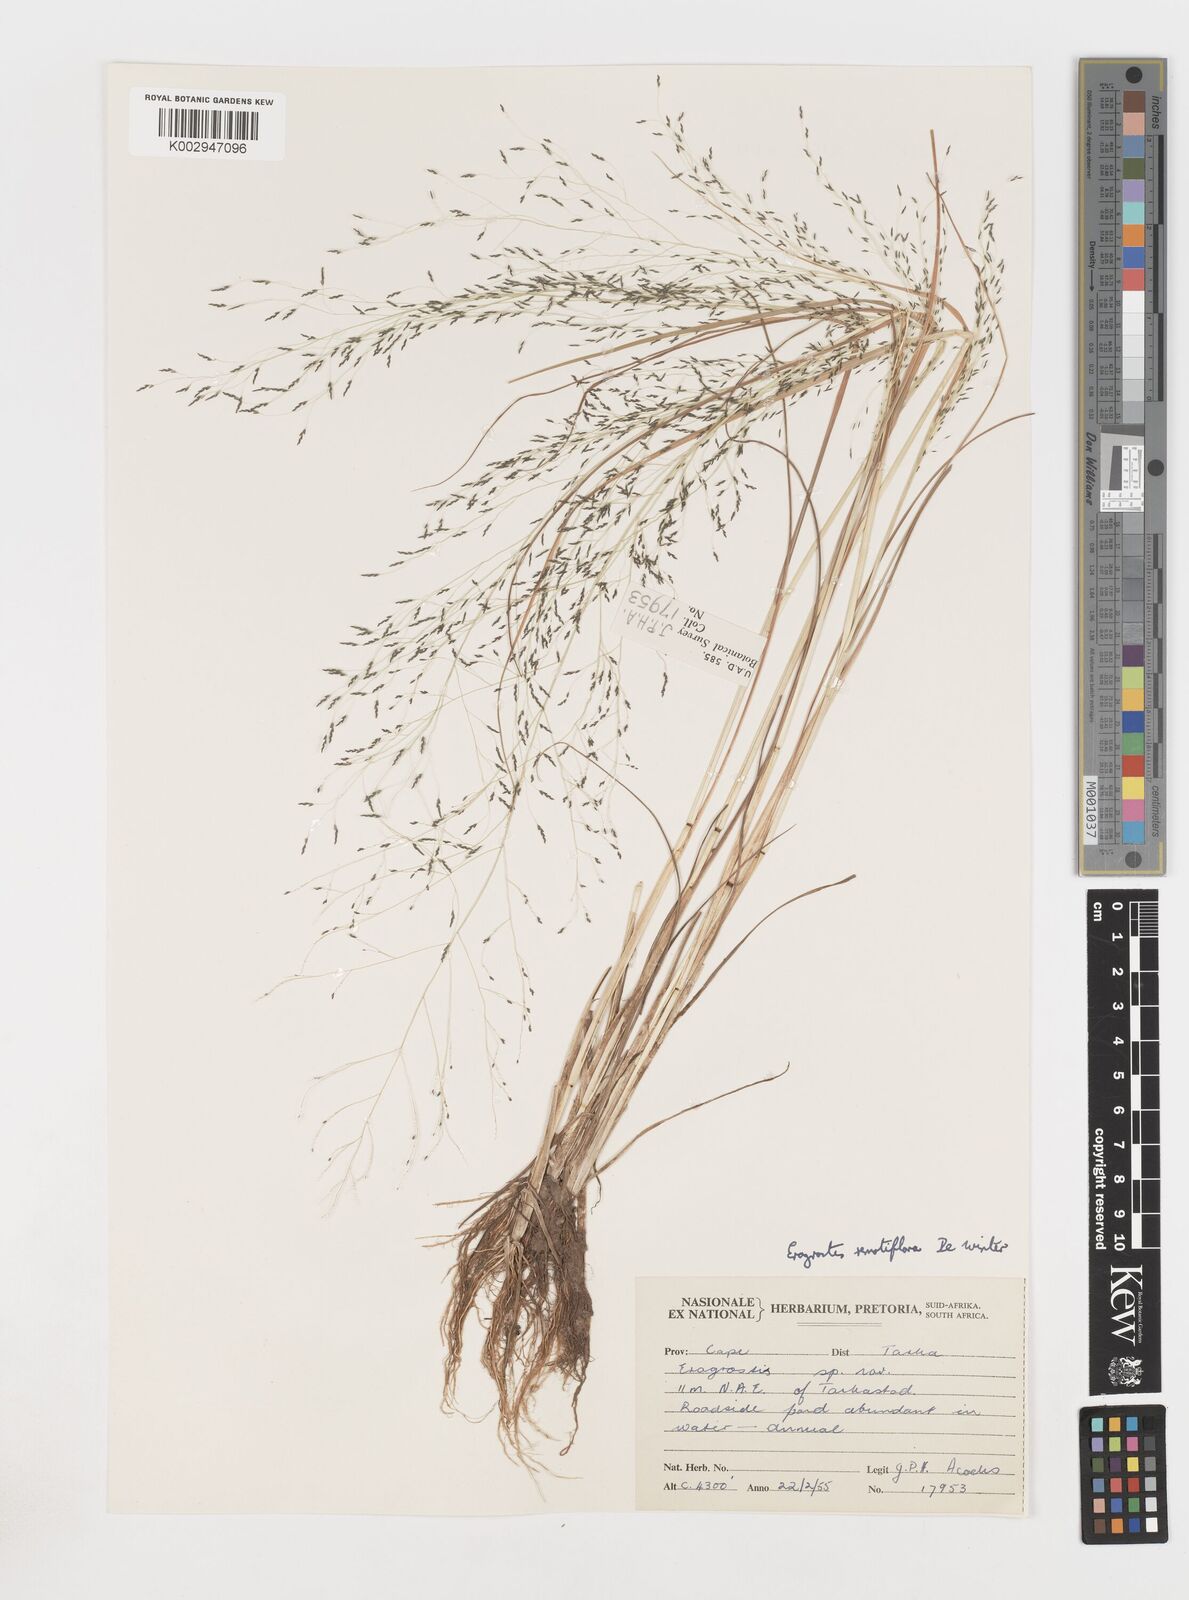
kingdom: Plantae
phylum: Tracheophyta
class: Liliopsida
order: Poales
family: Poaceae
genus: Eragrostis
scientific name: Eragrostis remotiflora
